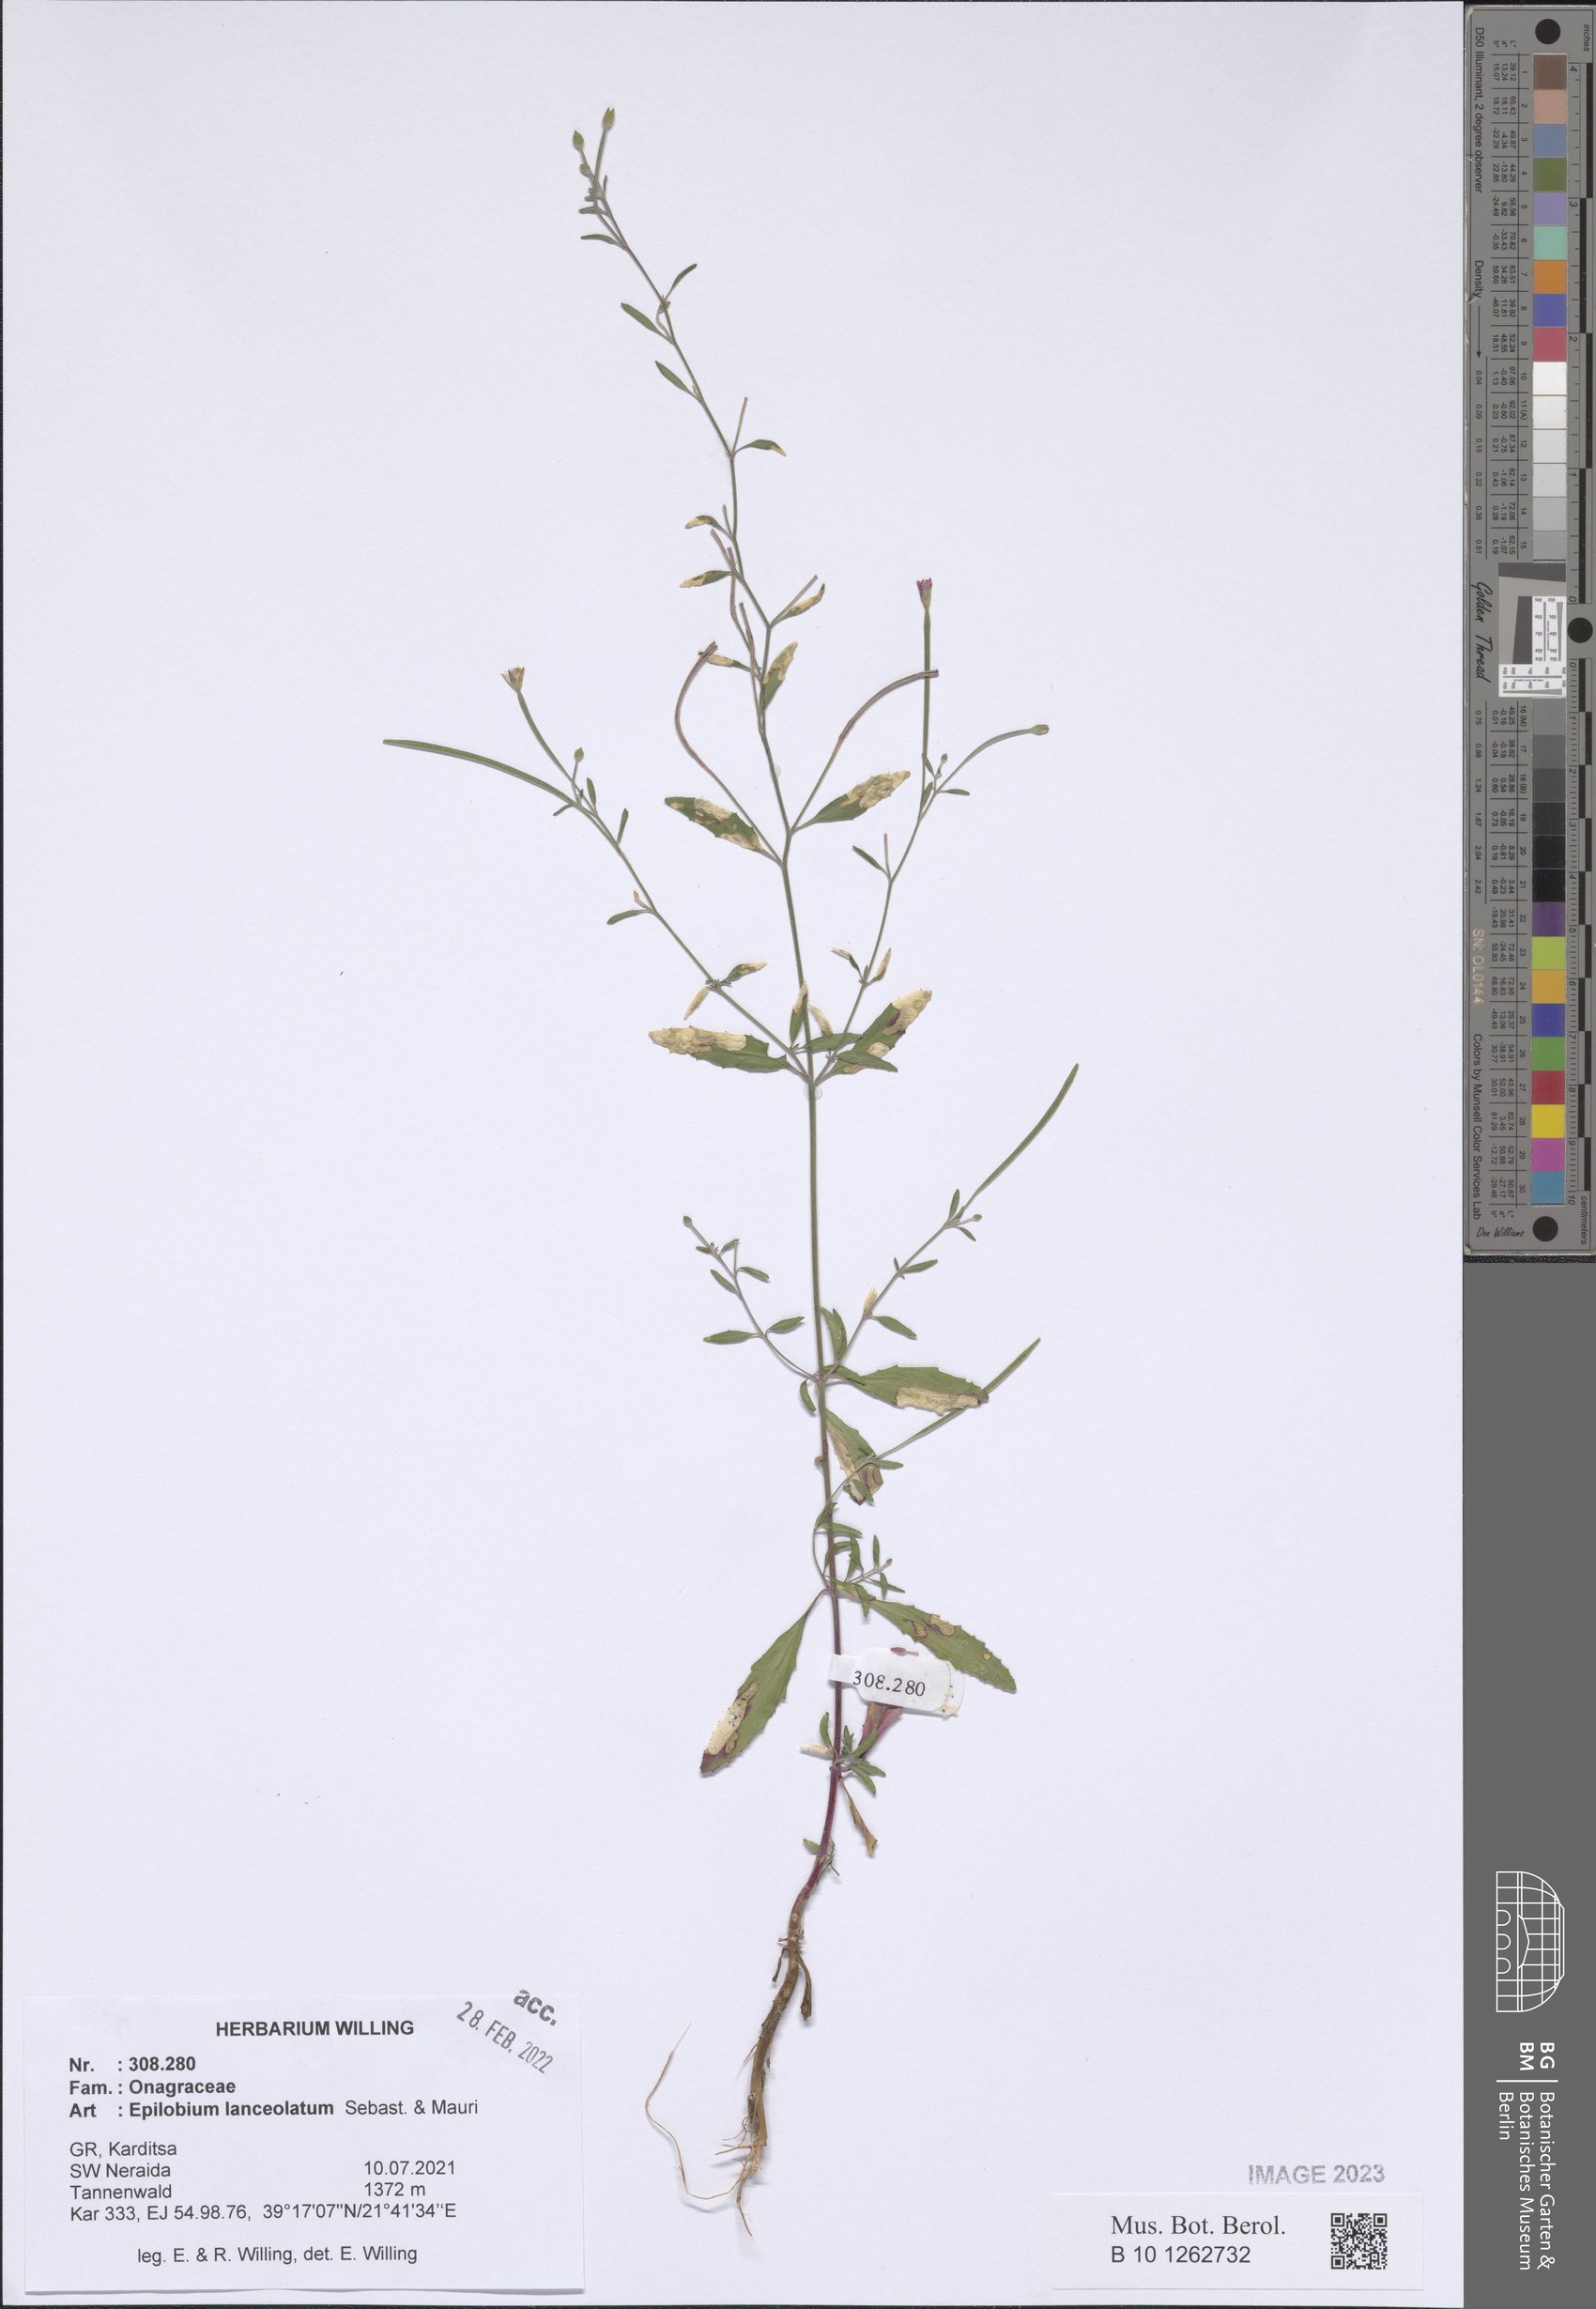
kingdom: Plantae
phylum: Tracheophyta
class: Magnoliopsida
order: Myrtales
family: Onagraceae
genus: Epilobium
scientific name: Epilobium lanceolatum
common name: Spear-leaved willowherb
